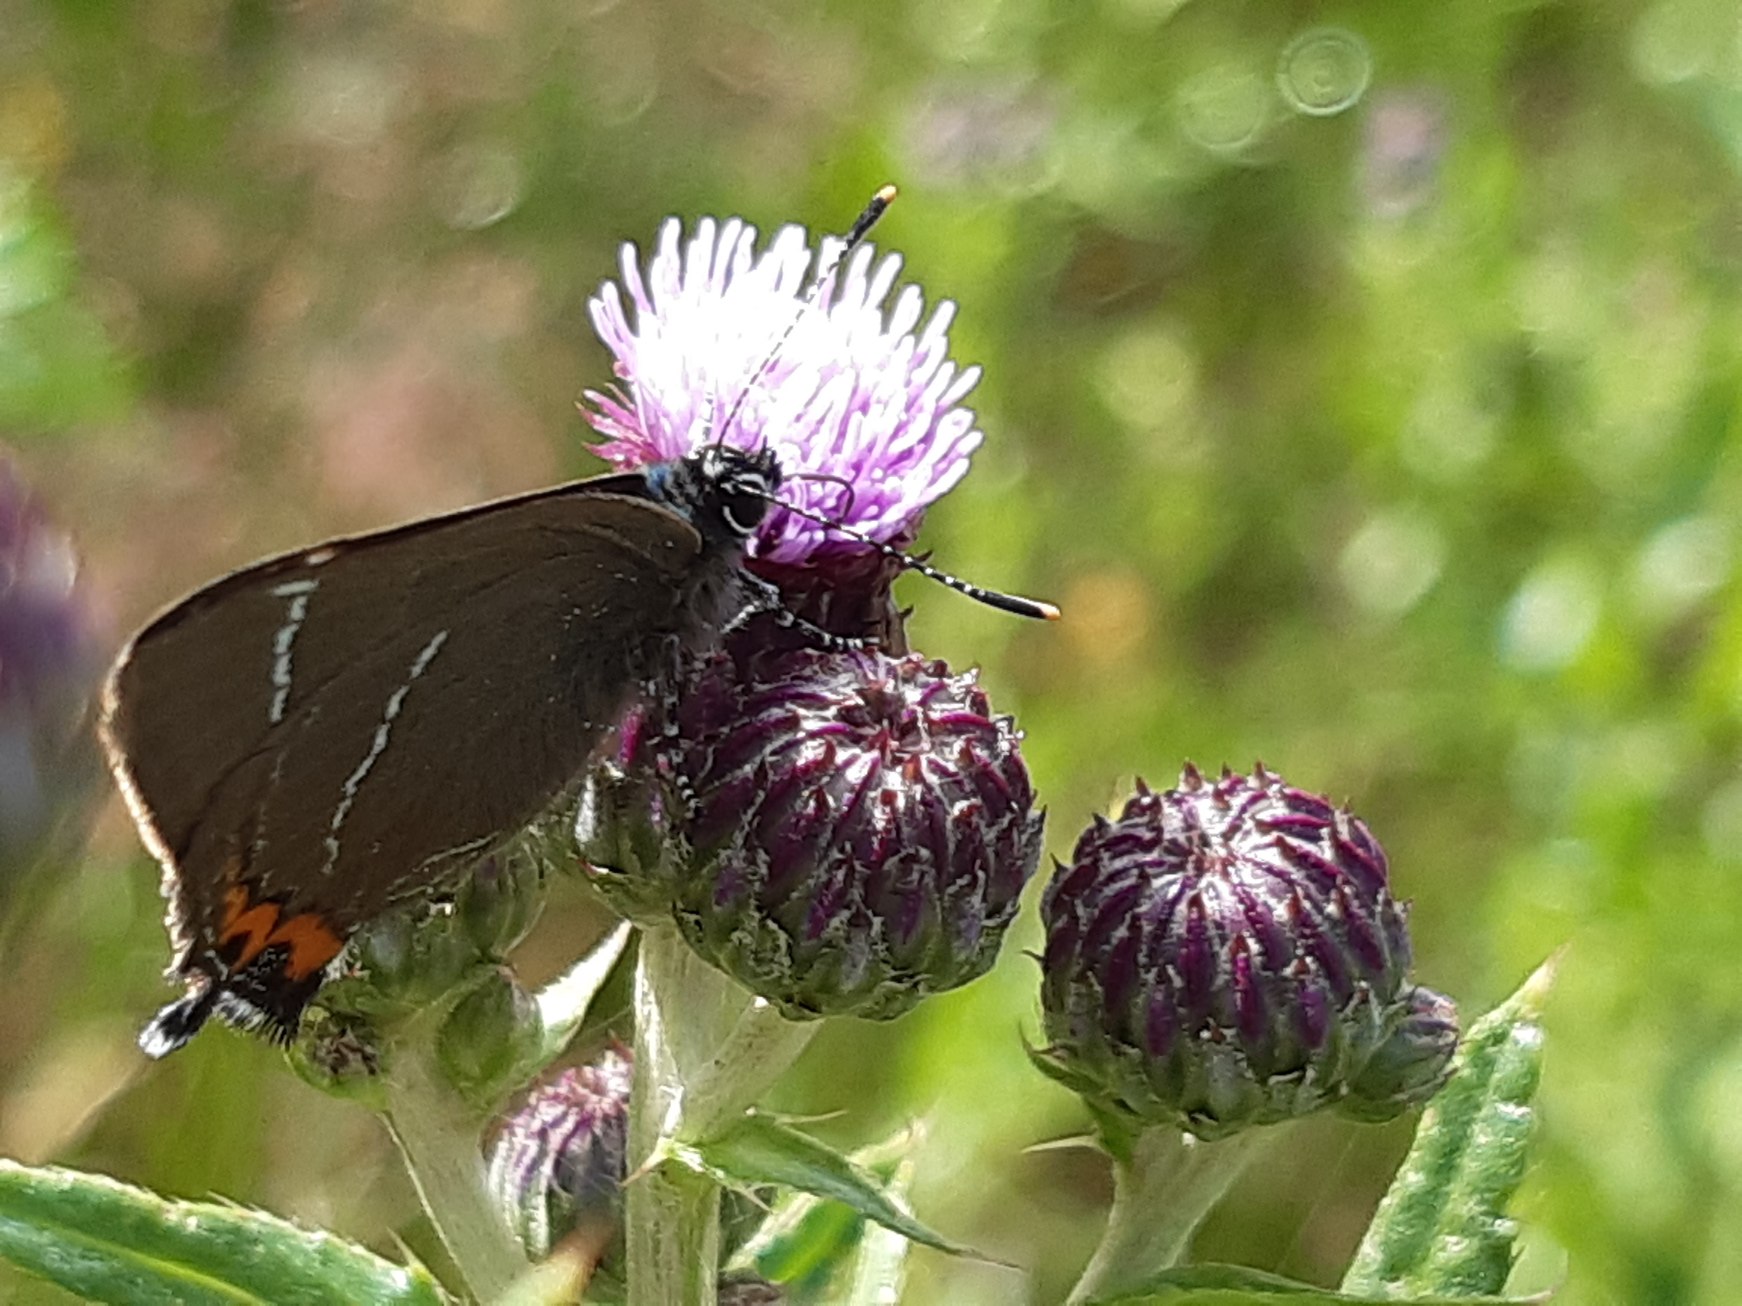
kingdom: Animalia
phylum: Arthropoda
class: Insecta
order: Lepidoptera
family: Lycaenidae
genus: Satyrium
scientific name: Satyrium w-album
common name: Det hvide W
